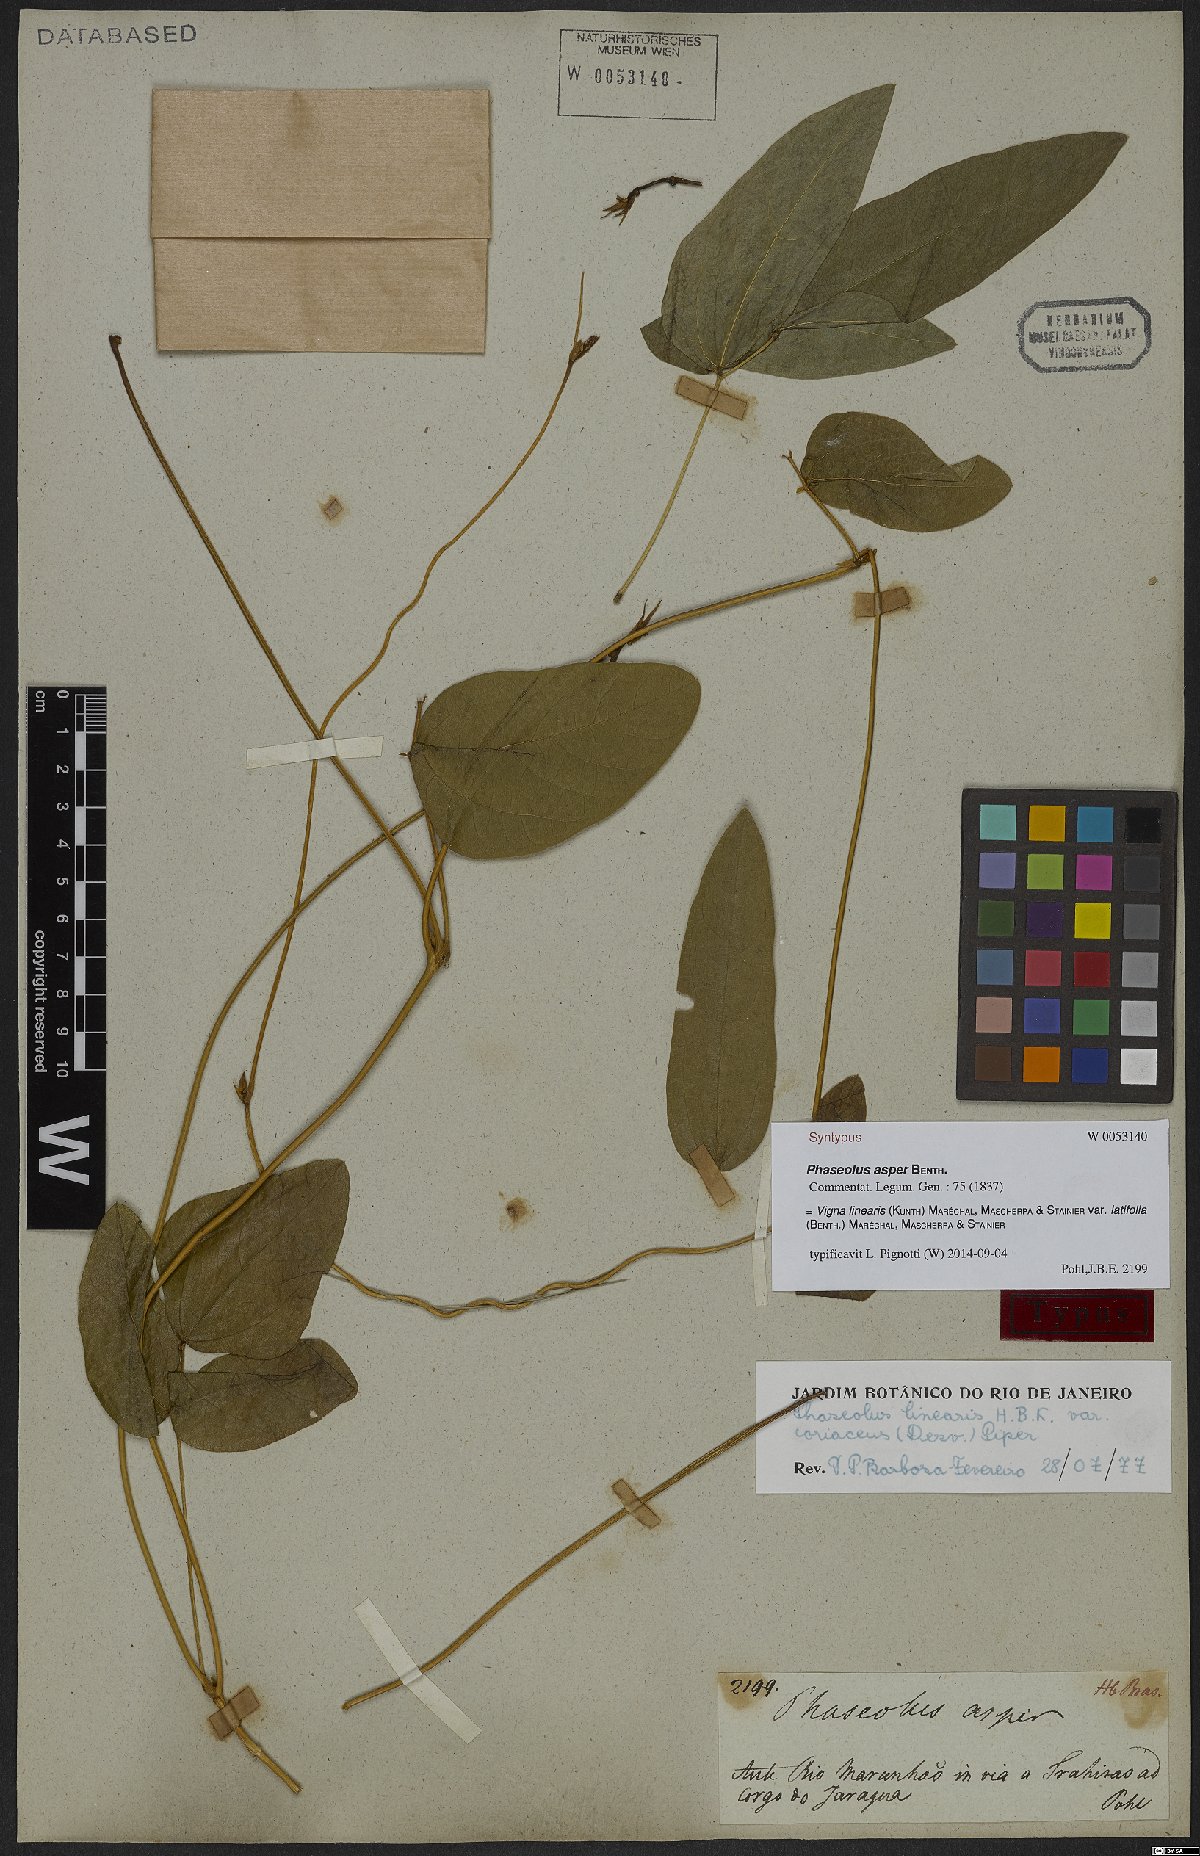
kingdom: Plantae
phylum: Tracheophyta
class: Magnoliopsida
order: Fabales
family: Fabaceae
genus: Helicotropis
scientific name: Helicotropis linearis
